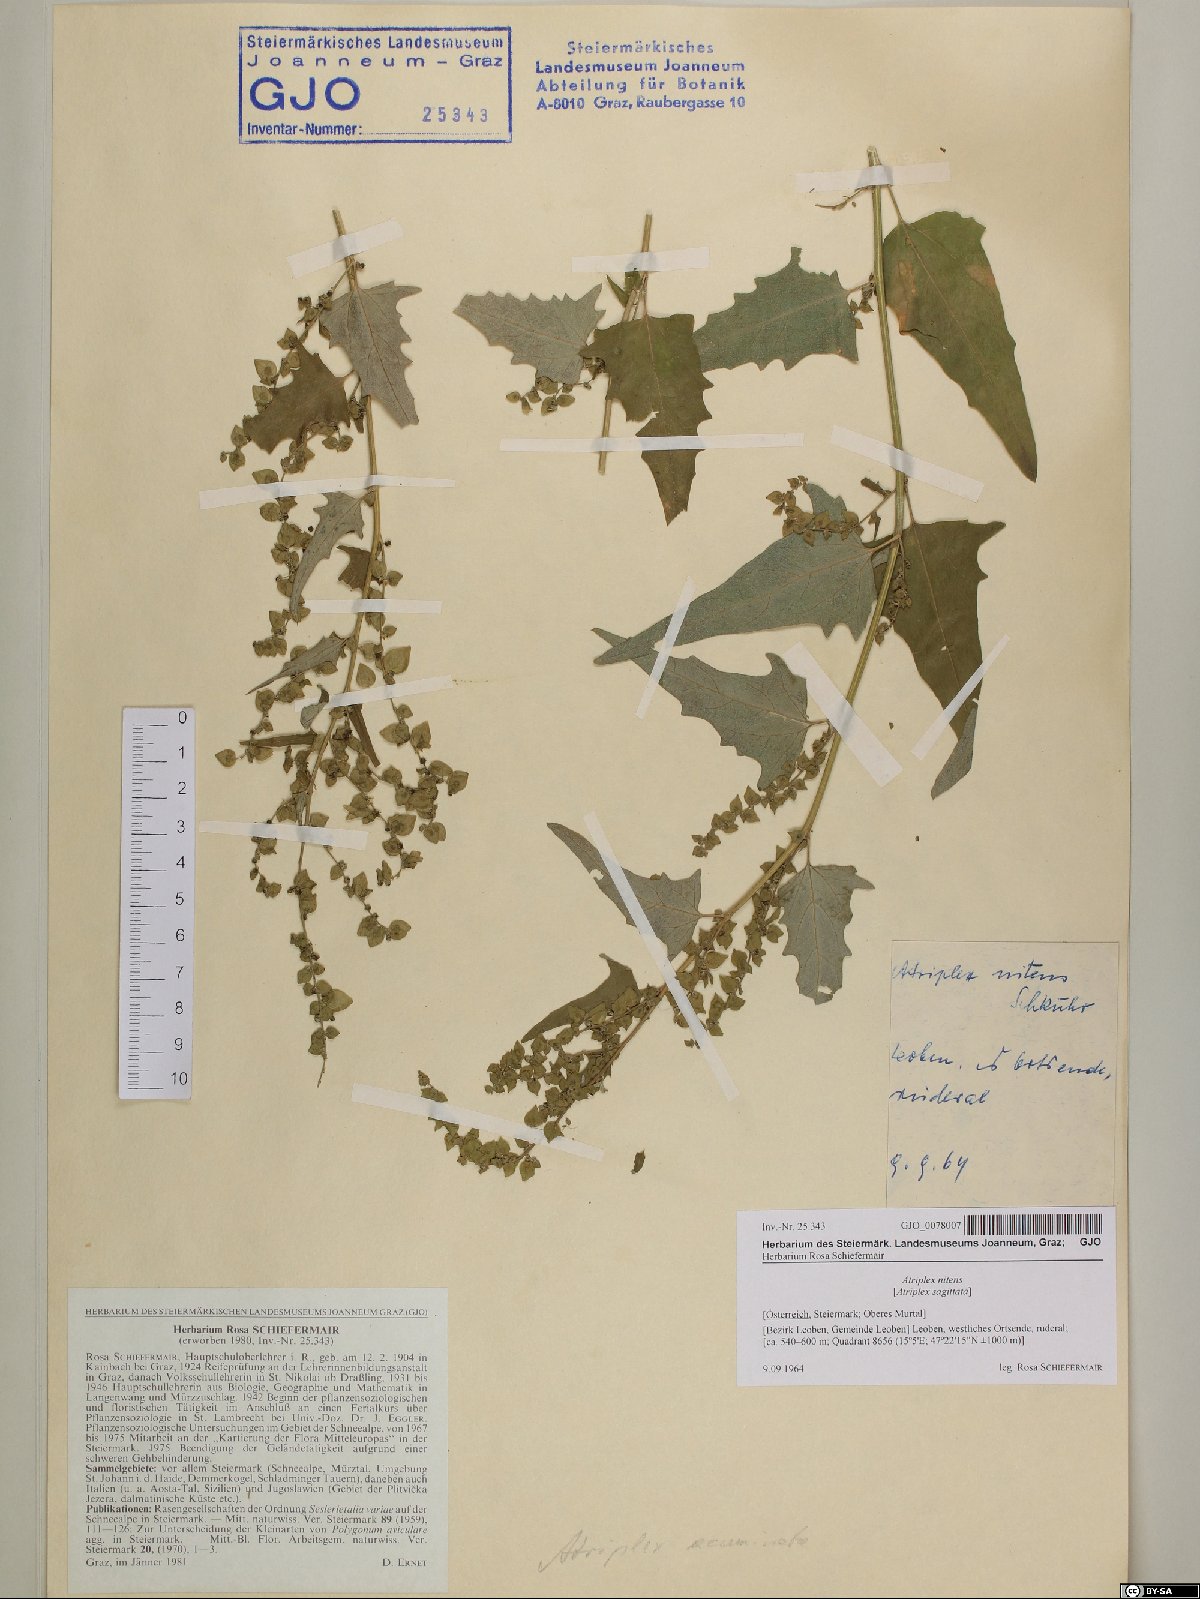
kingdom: Plantae
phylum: Tracheophyta
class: Magnoliopsida
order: Caryophyllales
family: Amaranthaceae
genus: Atriplex
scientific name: Atriplex sagittata
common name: Purple orache
